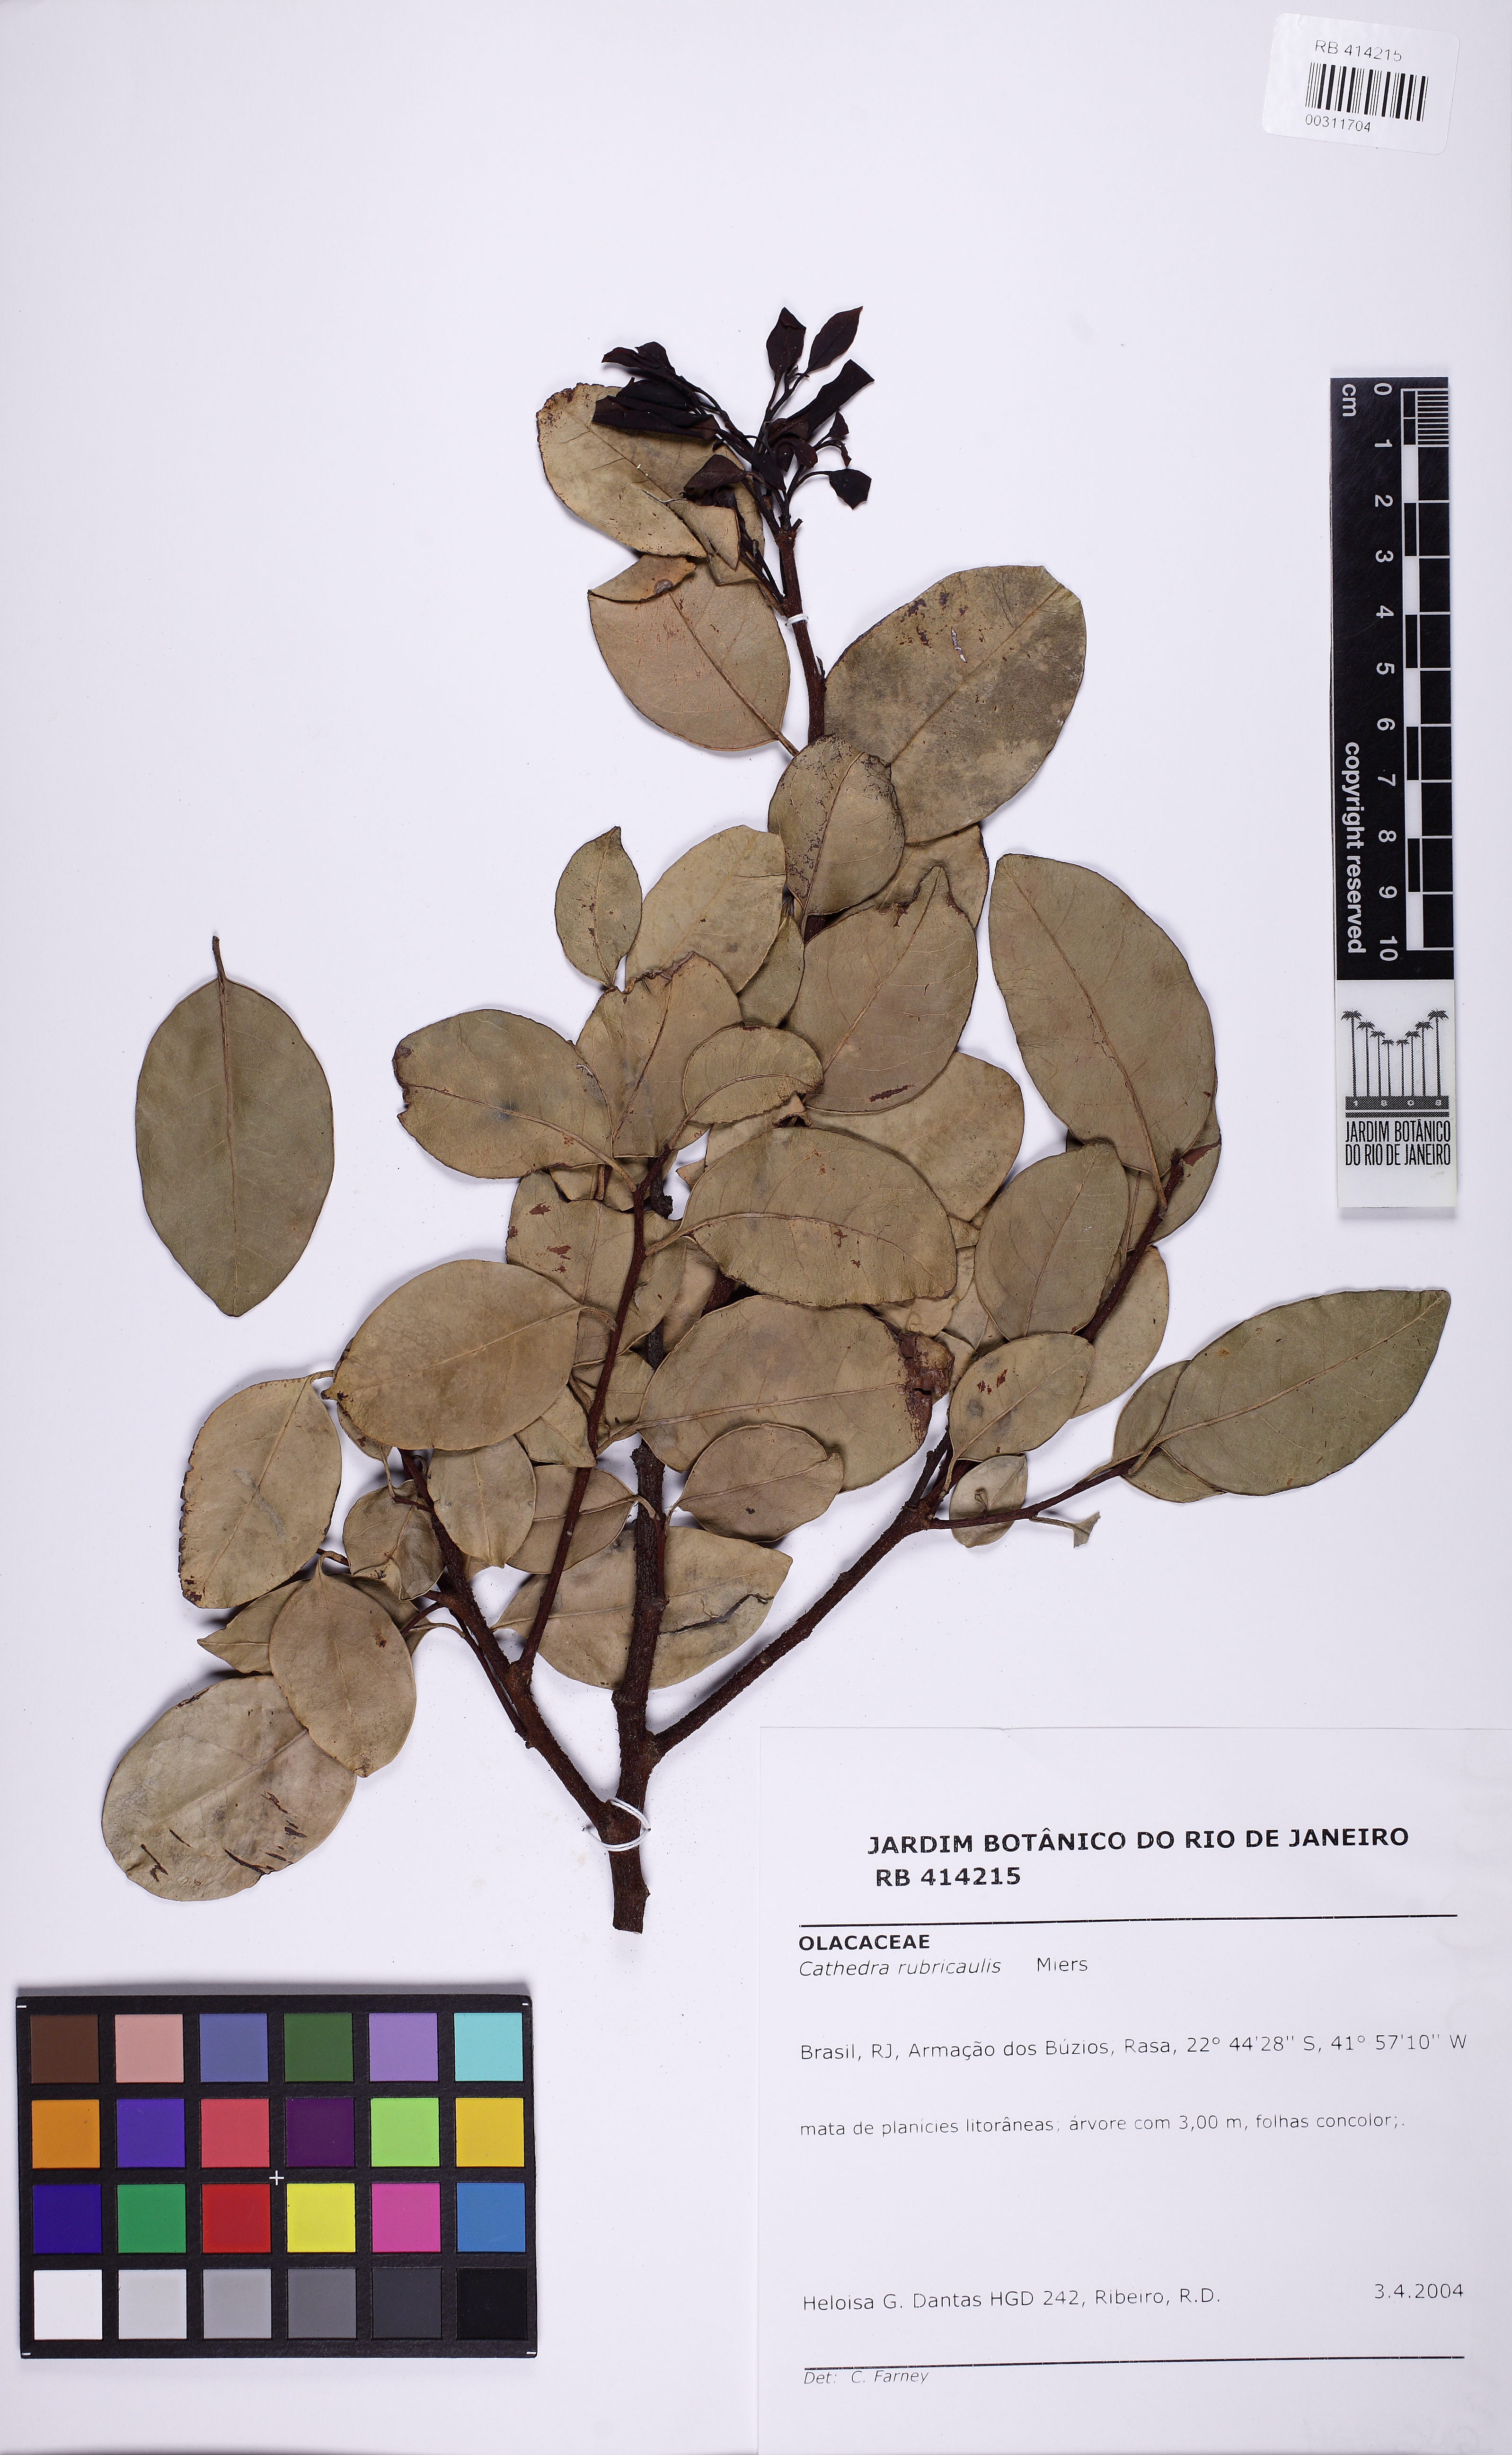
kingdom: Plantae
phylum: Tracheophyta
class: Magnoliopsida
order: Santalales
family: Aptandraceae
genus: Cathedra
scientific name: Cathedra rubricaulis
